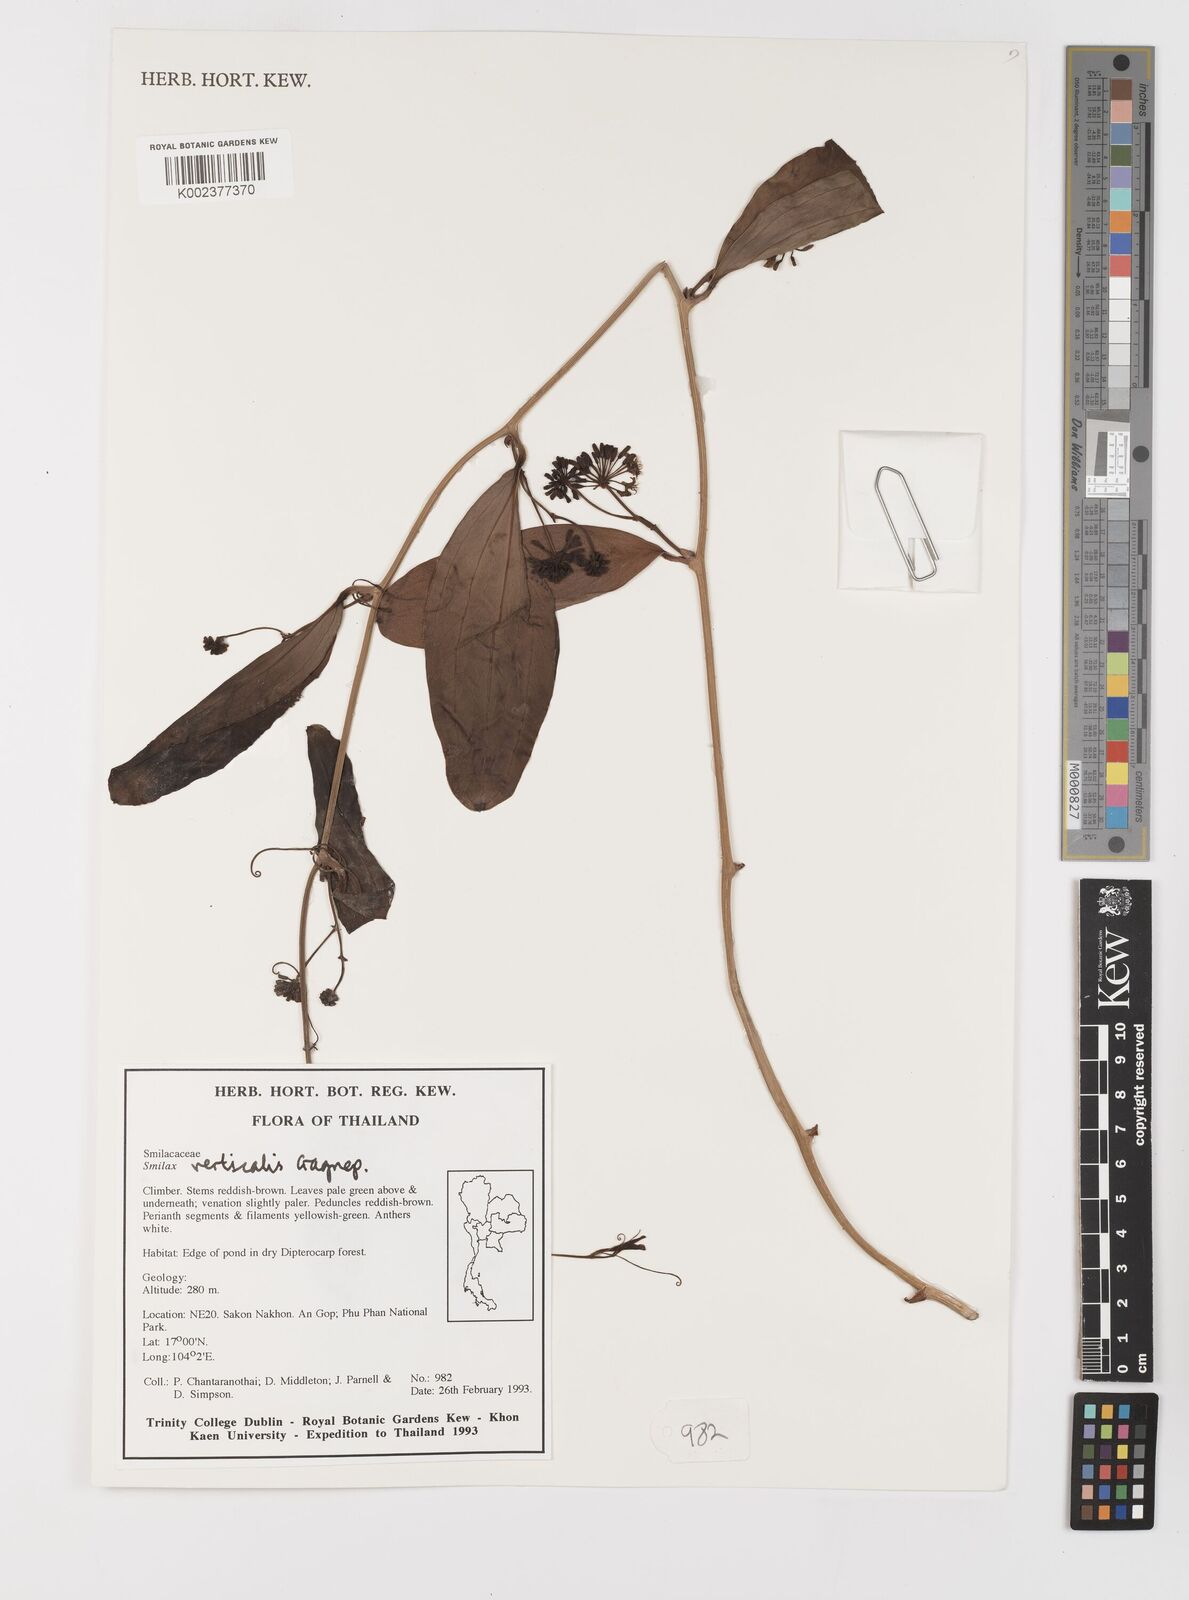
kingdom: Plantae
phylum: Tracheophyta
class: Liliopsida
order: Liliales
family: Smilacaceae
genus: Smilax
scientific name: Smilax verticalis
